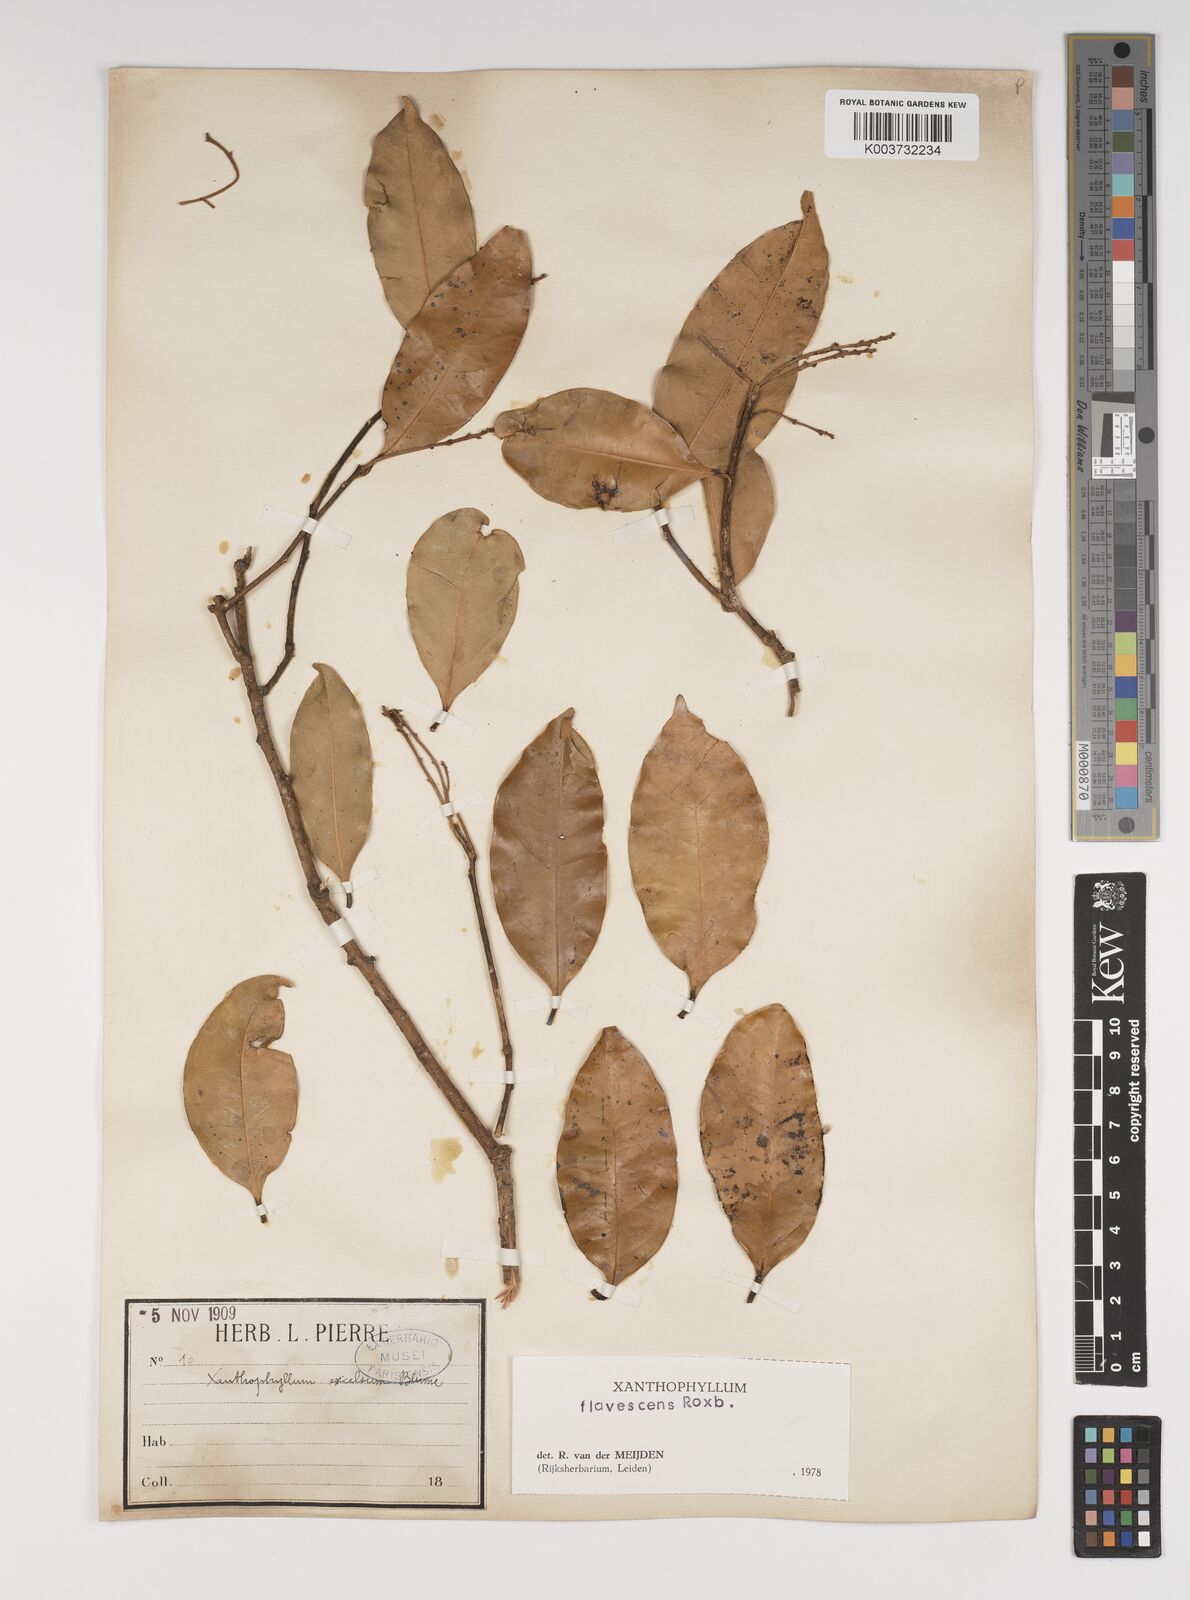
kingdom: Plantae
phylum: Tracheophyta
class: Magnoliopsida
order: Fabales
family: Polygalaceae
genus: Xanthophyllum
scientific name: Xanthophyllum flavescens
